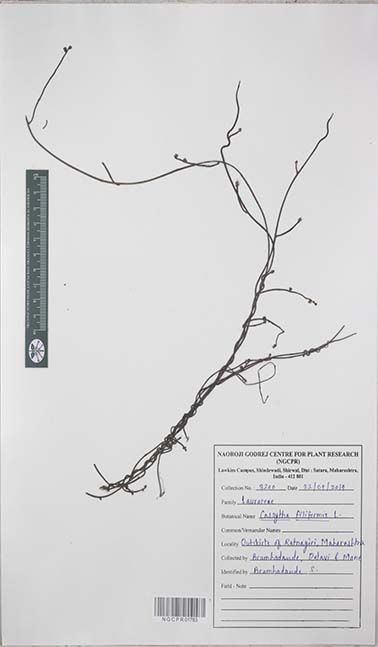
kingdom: Plantae
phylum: Tracheophyta
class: Magnoliopsida
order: Laurales
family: Lauraceae
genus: Cassytha
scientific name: Cassytha filiformis
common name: Dodder-laurel
